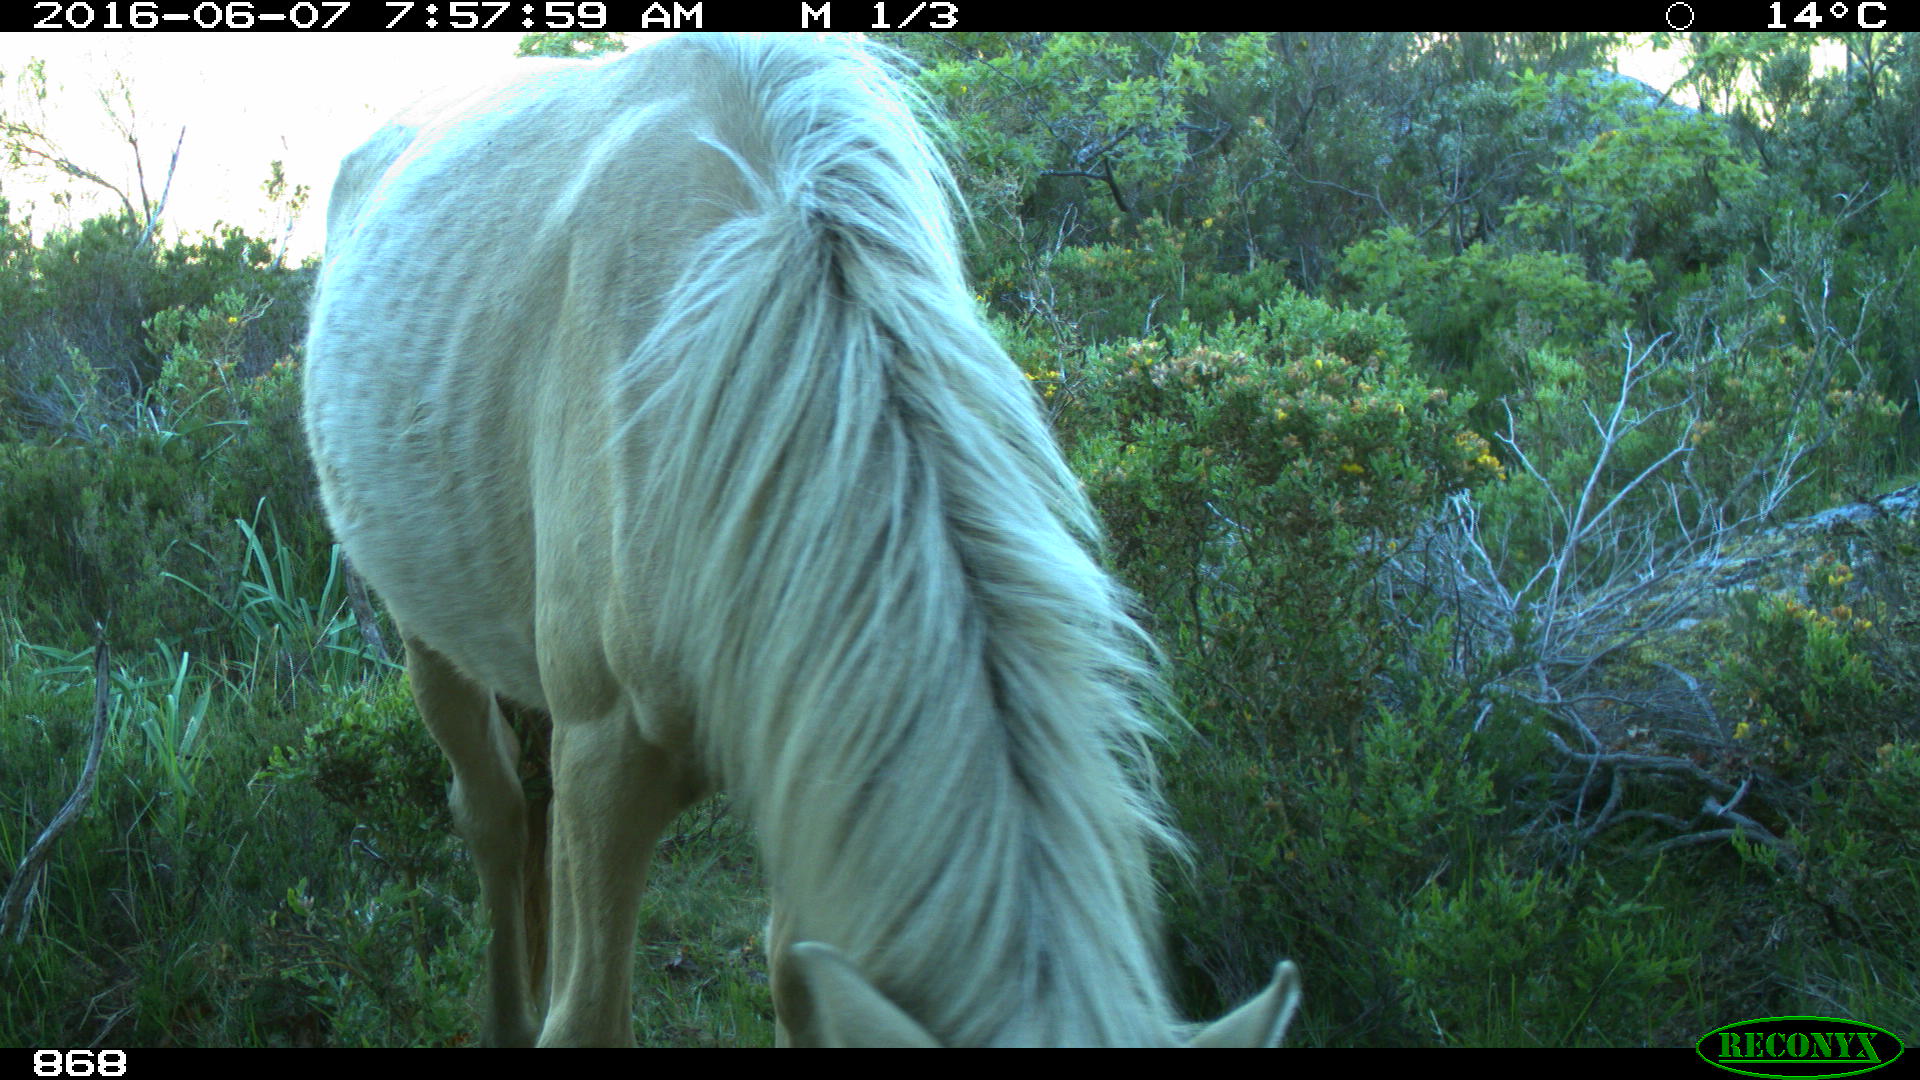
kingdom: Animalia
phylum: Chordata
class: Mammalia
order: Perissodactyla
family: Equidae
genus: Equus
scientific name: Equus caballus
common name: Horse
